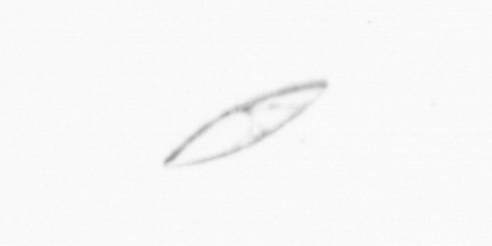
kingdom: Chromista
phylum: Ochrophyta
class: Bacillariophyceae
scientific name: Bacillariophyceae
